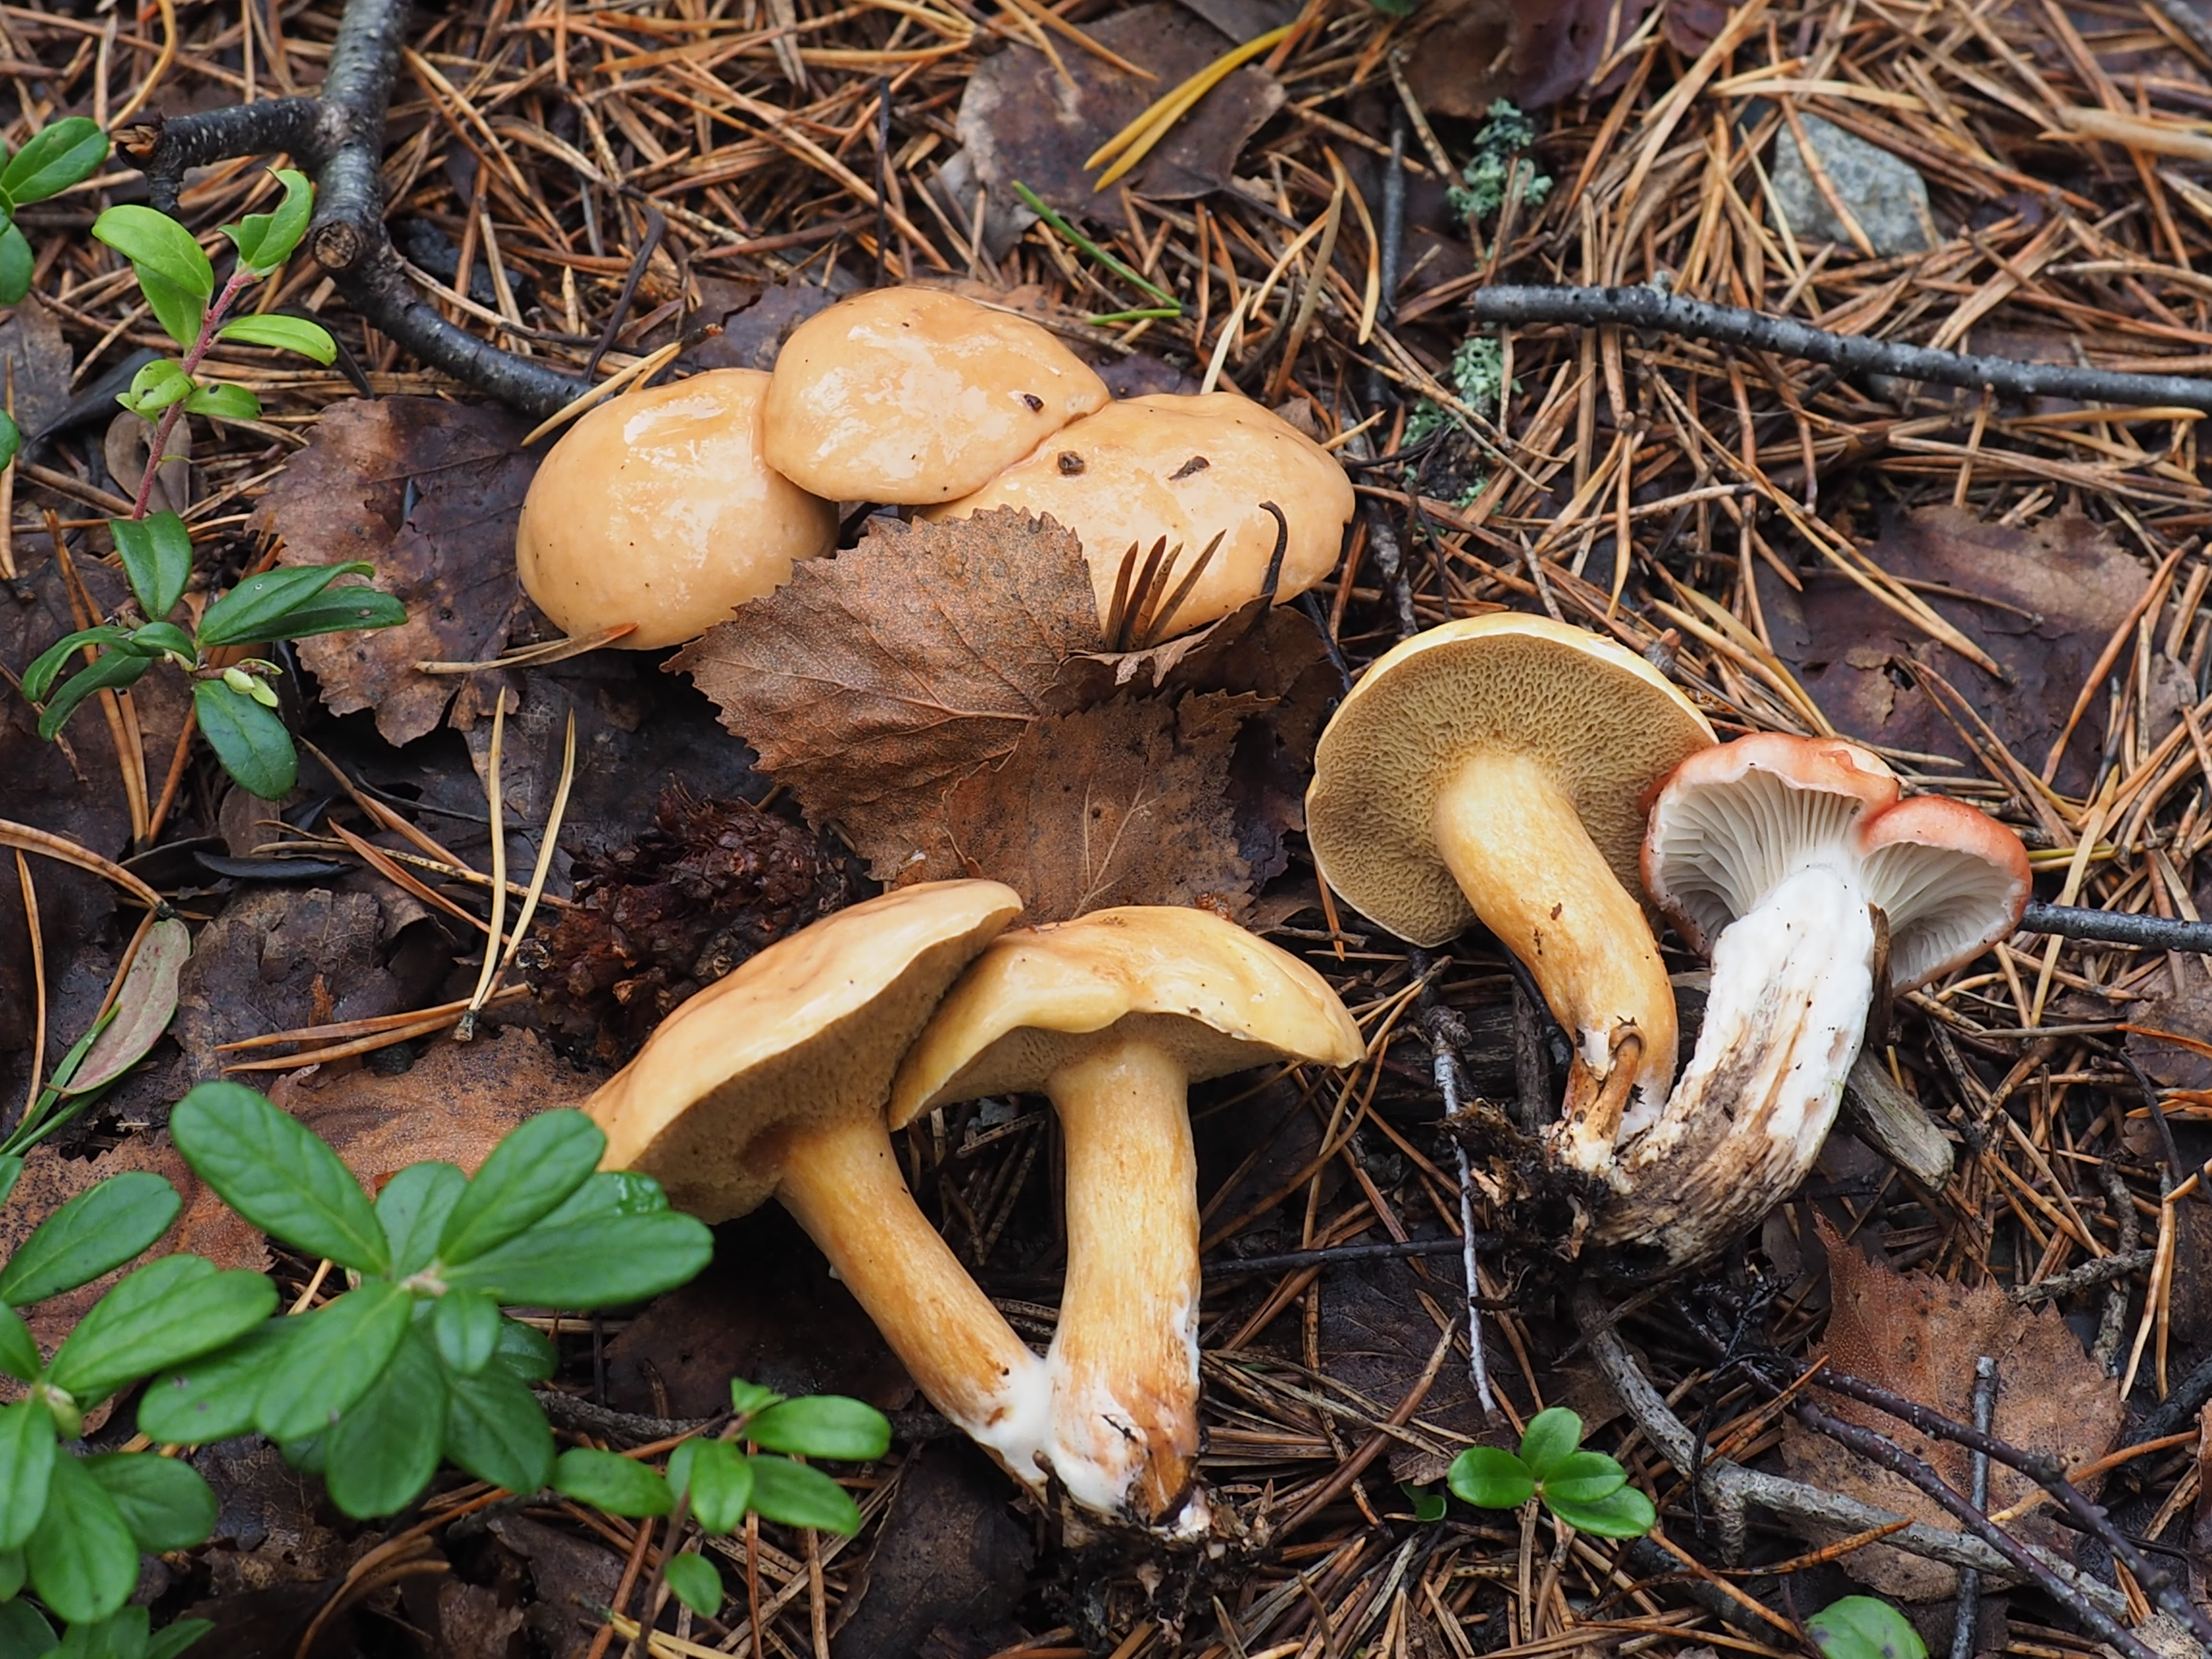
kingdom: Fungi
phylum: Basidiomycota
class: Agaricomycetes
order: Boletales
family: Gomphidiaceae
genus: Gomphidius
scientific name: Gomphidius roseus
